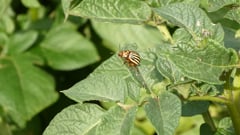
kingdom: Animalia
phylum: Arthropoda
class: Insecta
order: Coleoptera
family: Chrysomelidae
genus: Leptinotarsa
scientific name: Leptinotarsa decemlineata
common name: Colorado potato beetle
